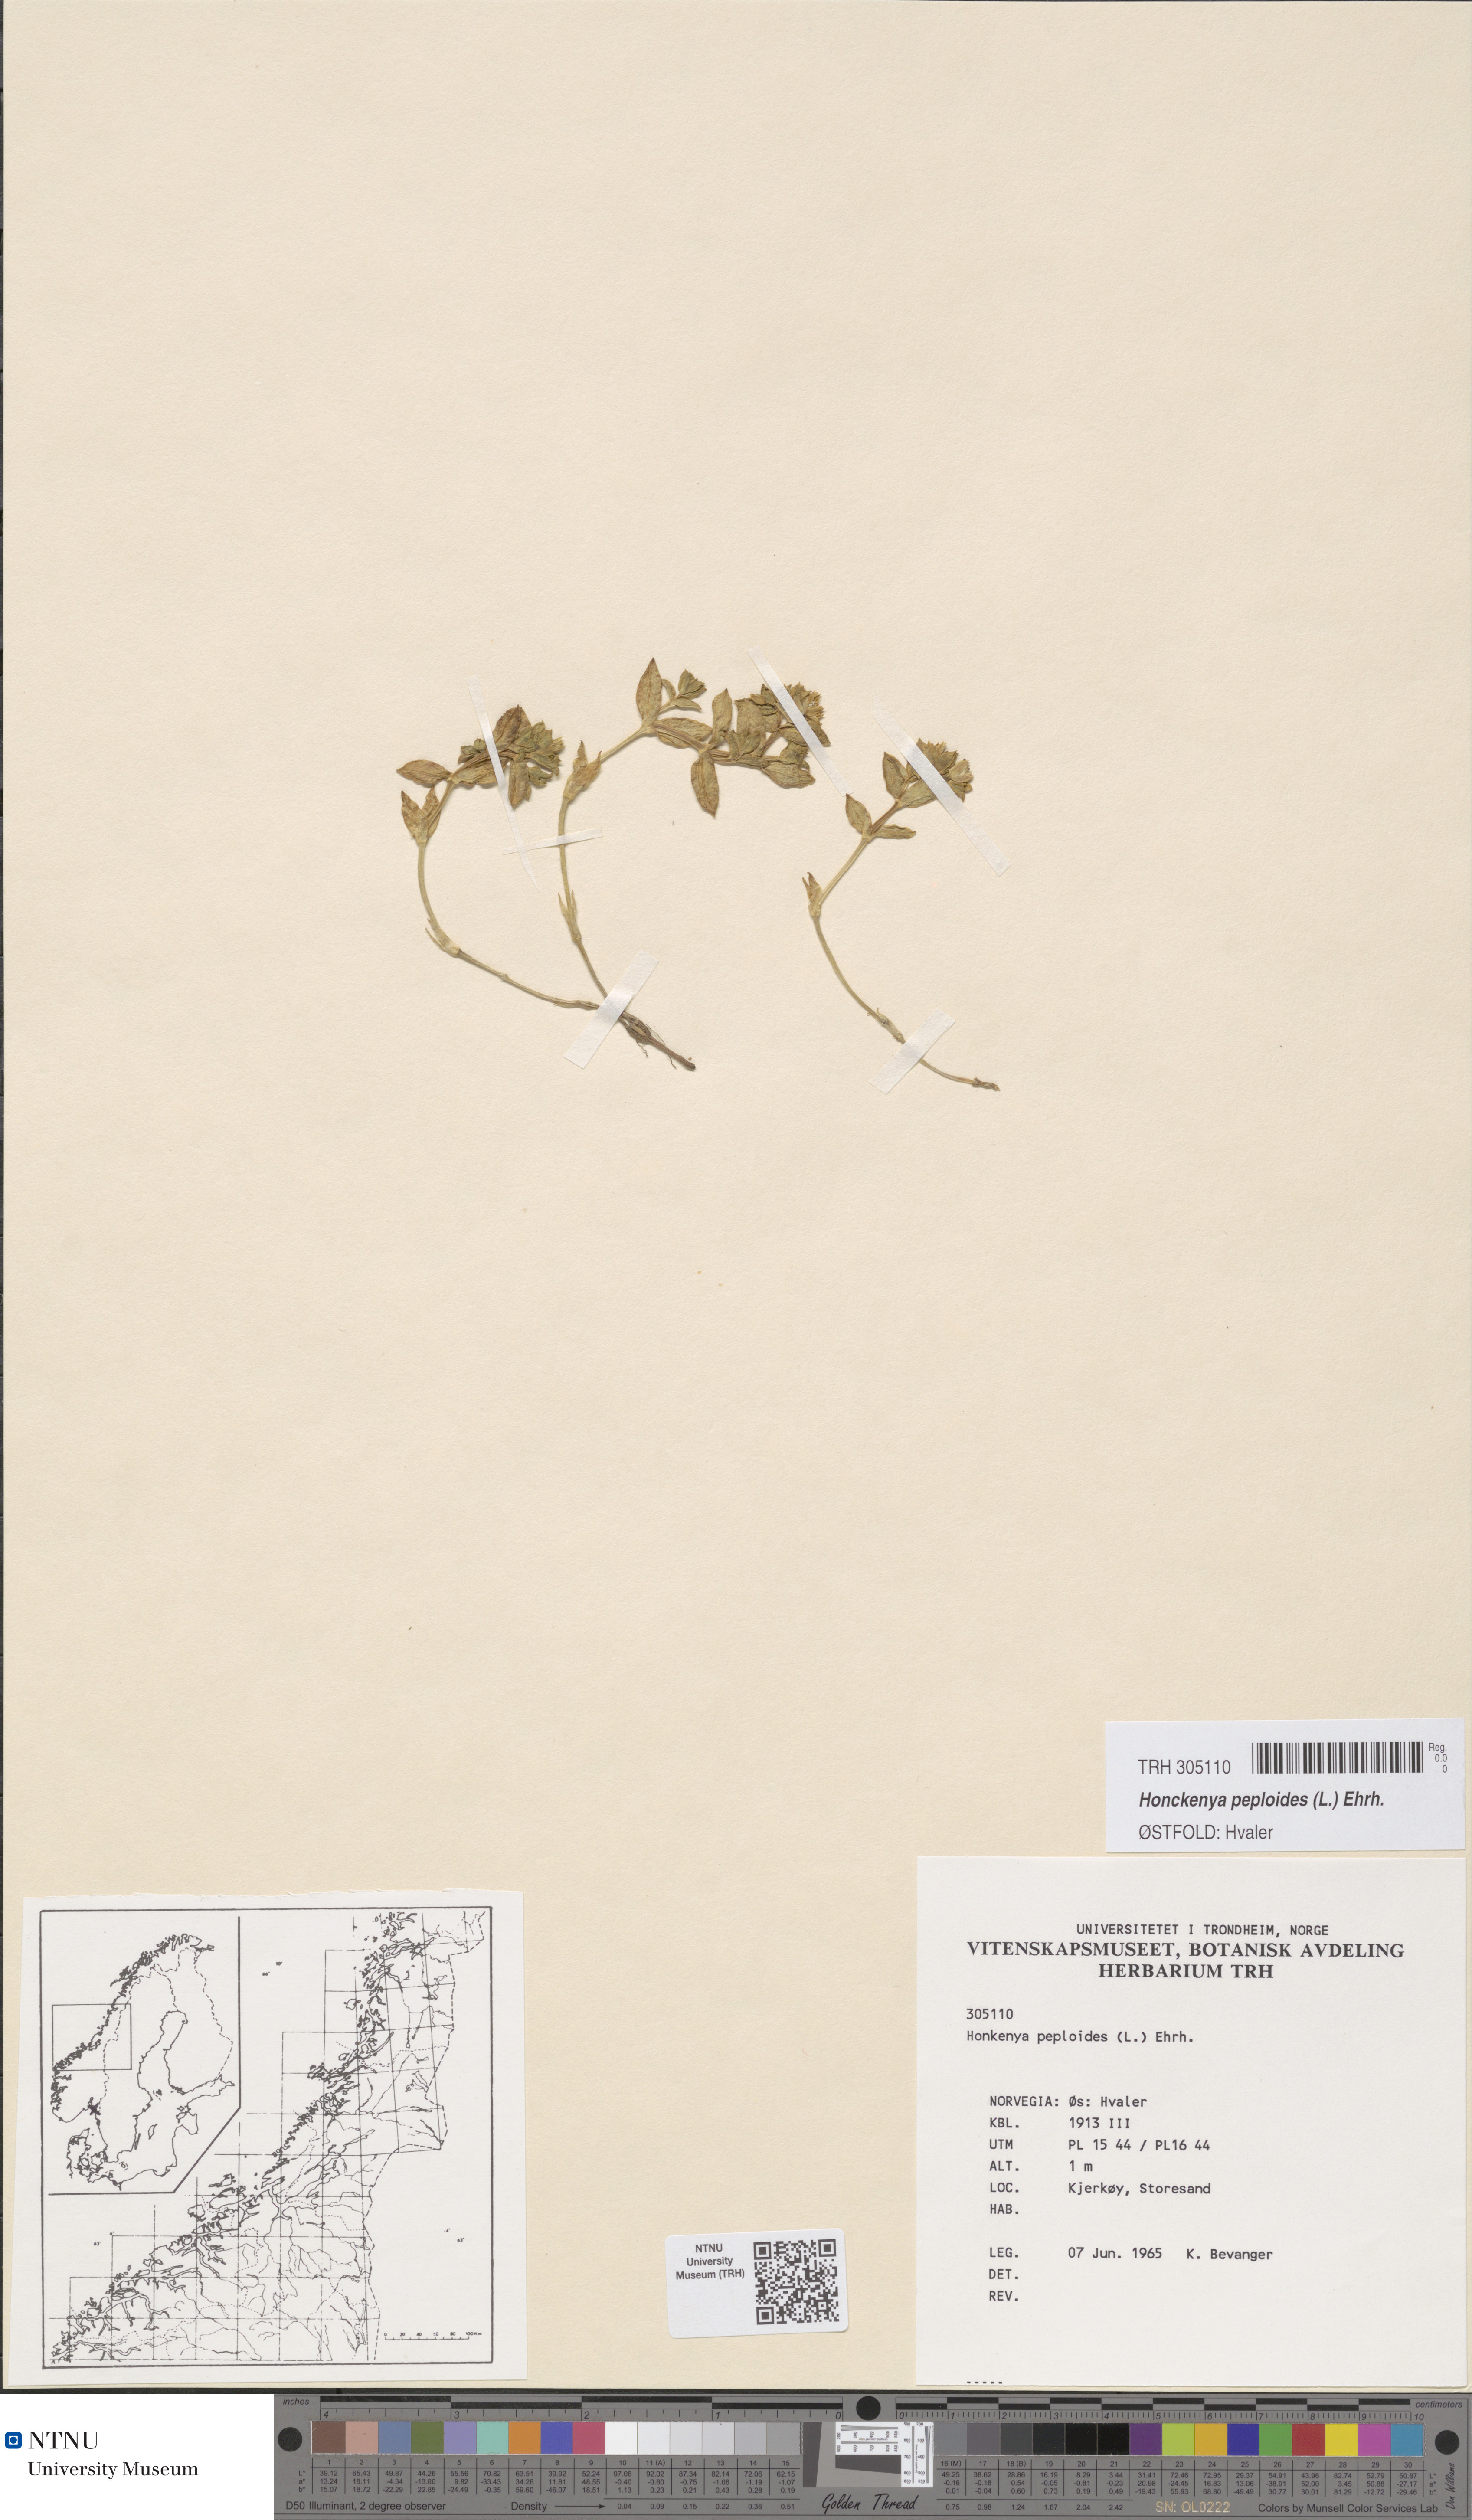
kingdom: Plantae
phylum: Tracheophyta
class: Magnoliopsida
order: Caryophyllales
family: Caryophyllaceae
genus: Honckenya
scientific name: Honckenya peploides
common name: Sea sandwort
